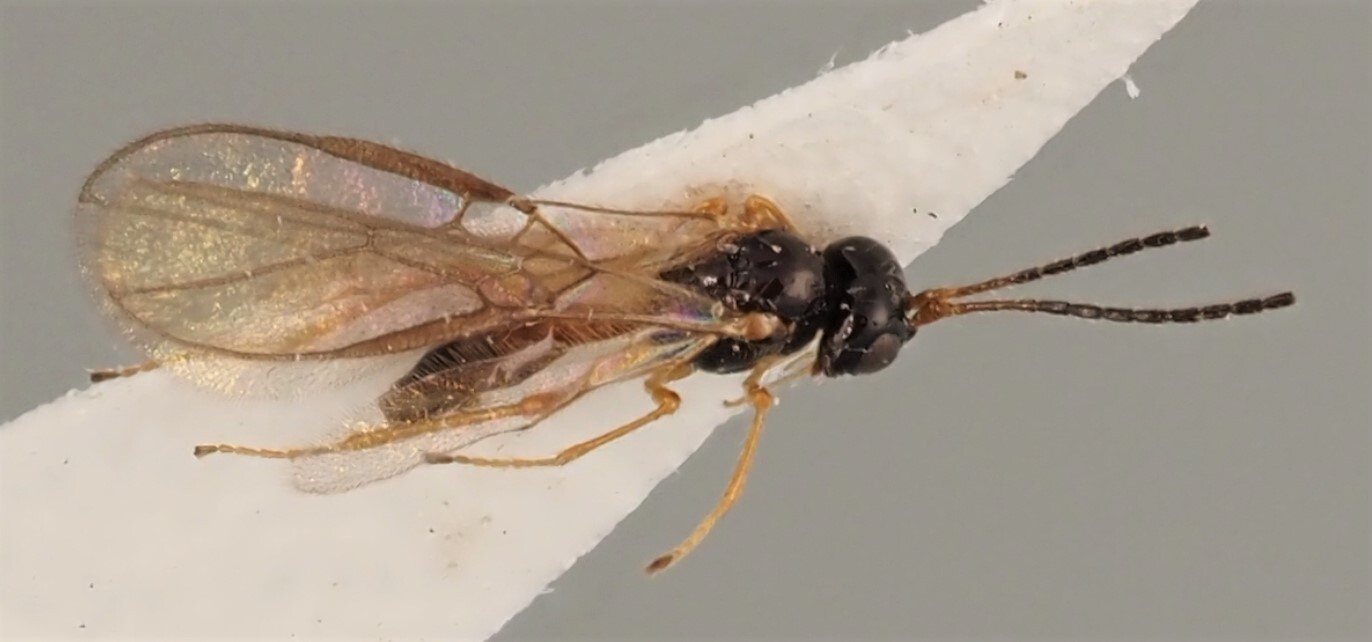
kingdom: Animalia
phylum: Arthropoda
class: Insecta
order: Hymenoptera
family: Braconidae
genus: Orthostigma
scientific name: Orthostigma longicorne
